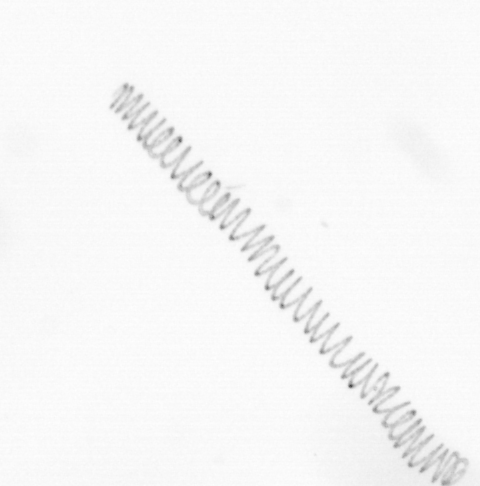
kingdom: Chromista
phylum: Ochrophyta
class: Bacillariophyceae
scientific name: Bacillariophyceae
